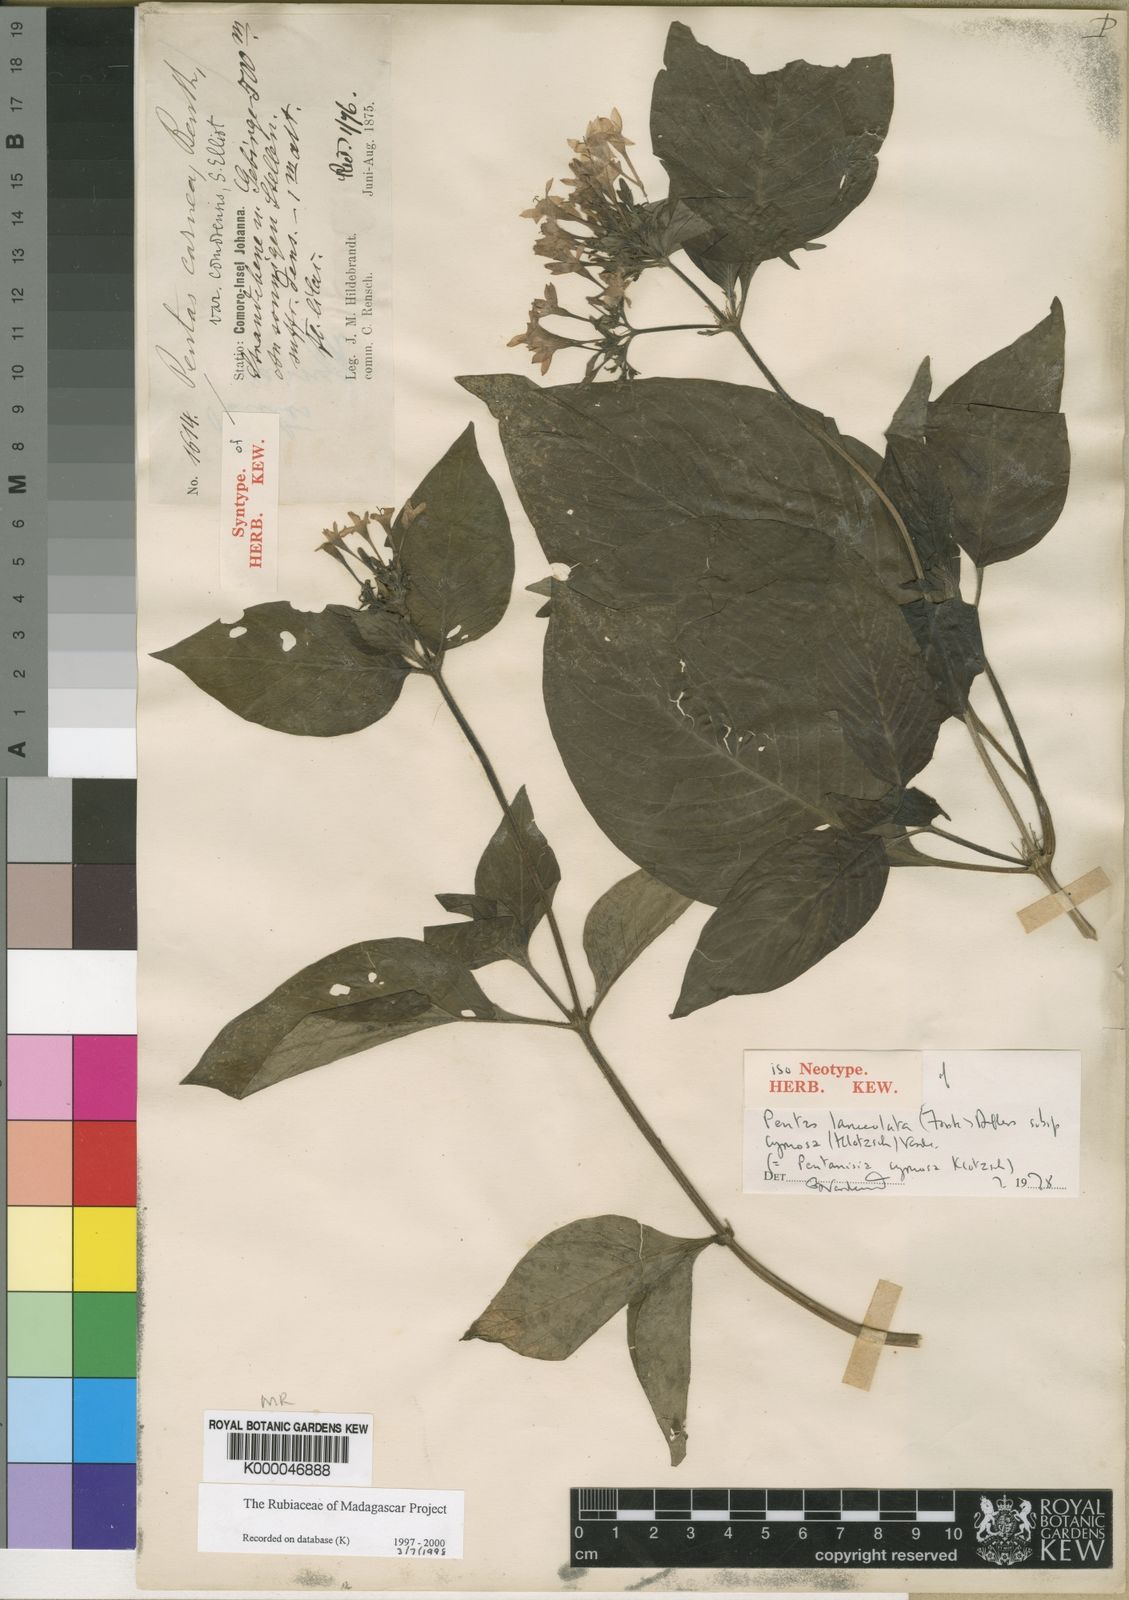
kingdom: Plantae
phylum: Tracheophyta
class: Magnoliopsida
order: Gentianales
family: Rubiaceae
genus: Pentas
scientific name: Pentas lanceolata
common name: Egyptian starcluster
